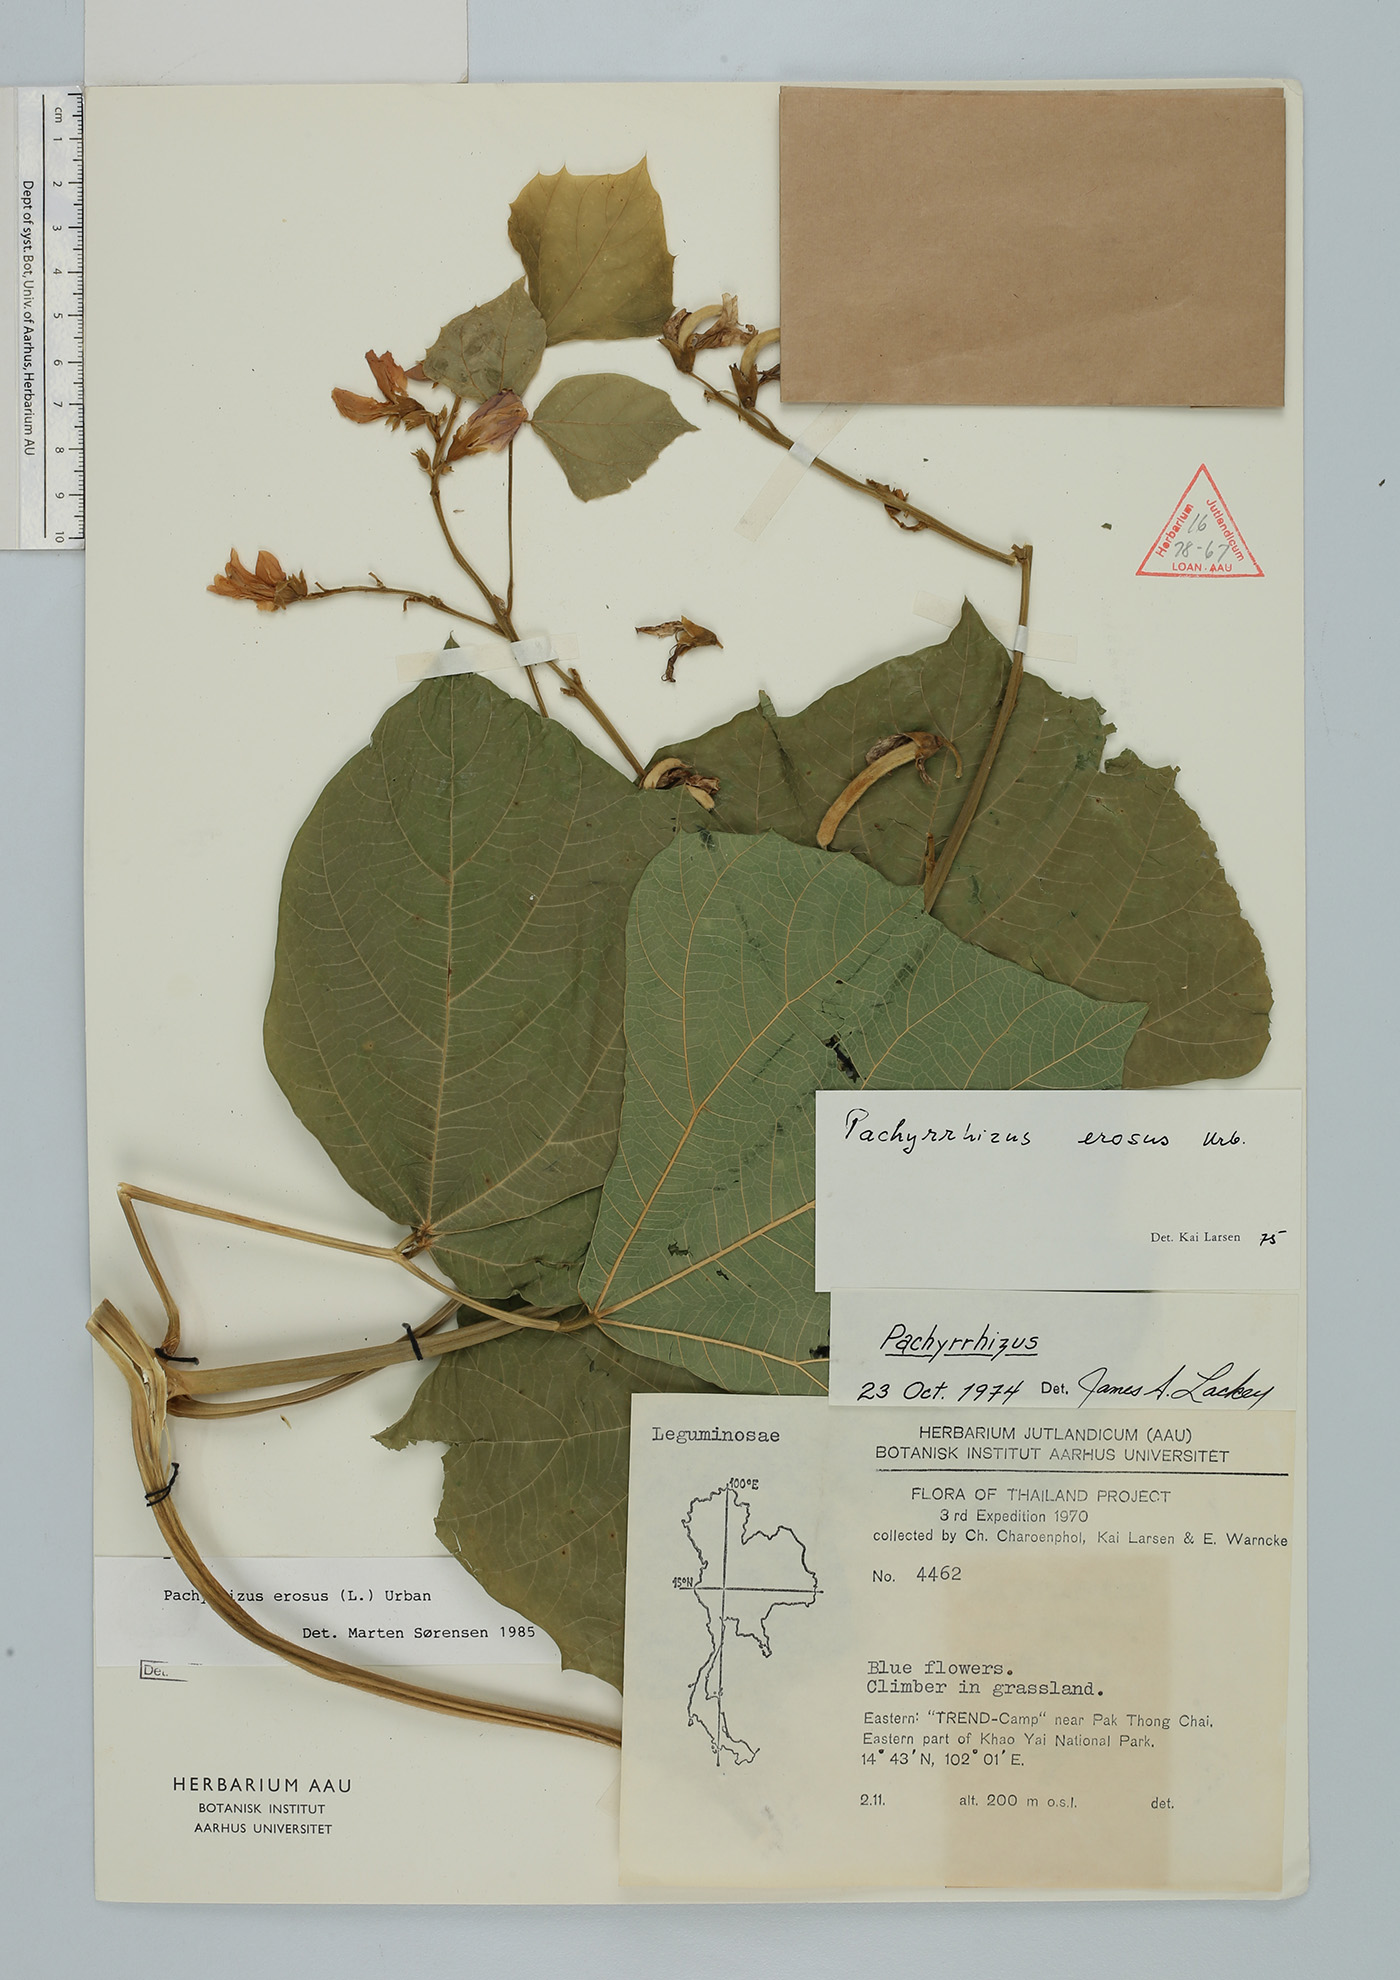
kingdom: Plantae
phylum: Tracheophyta
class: Magnoliopsida
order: Fabales
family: Fabaceae
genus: Pachyrhizus
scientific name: Pachyrhizus erosus
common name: Yam bean
